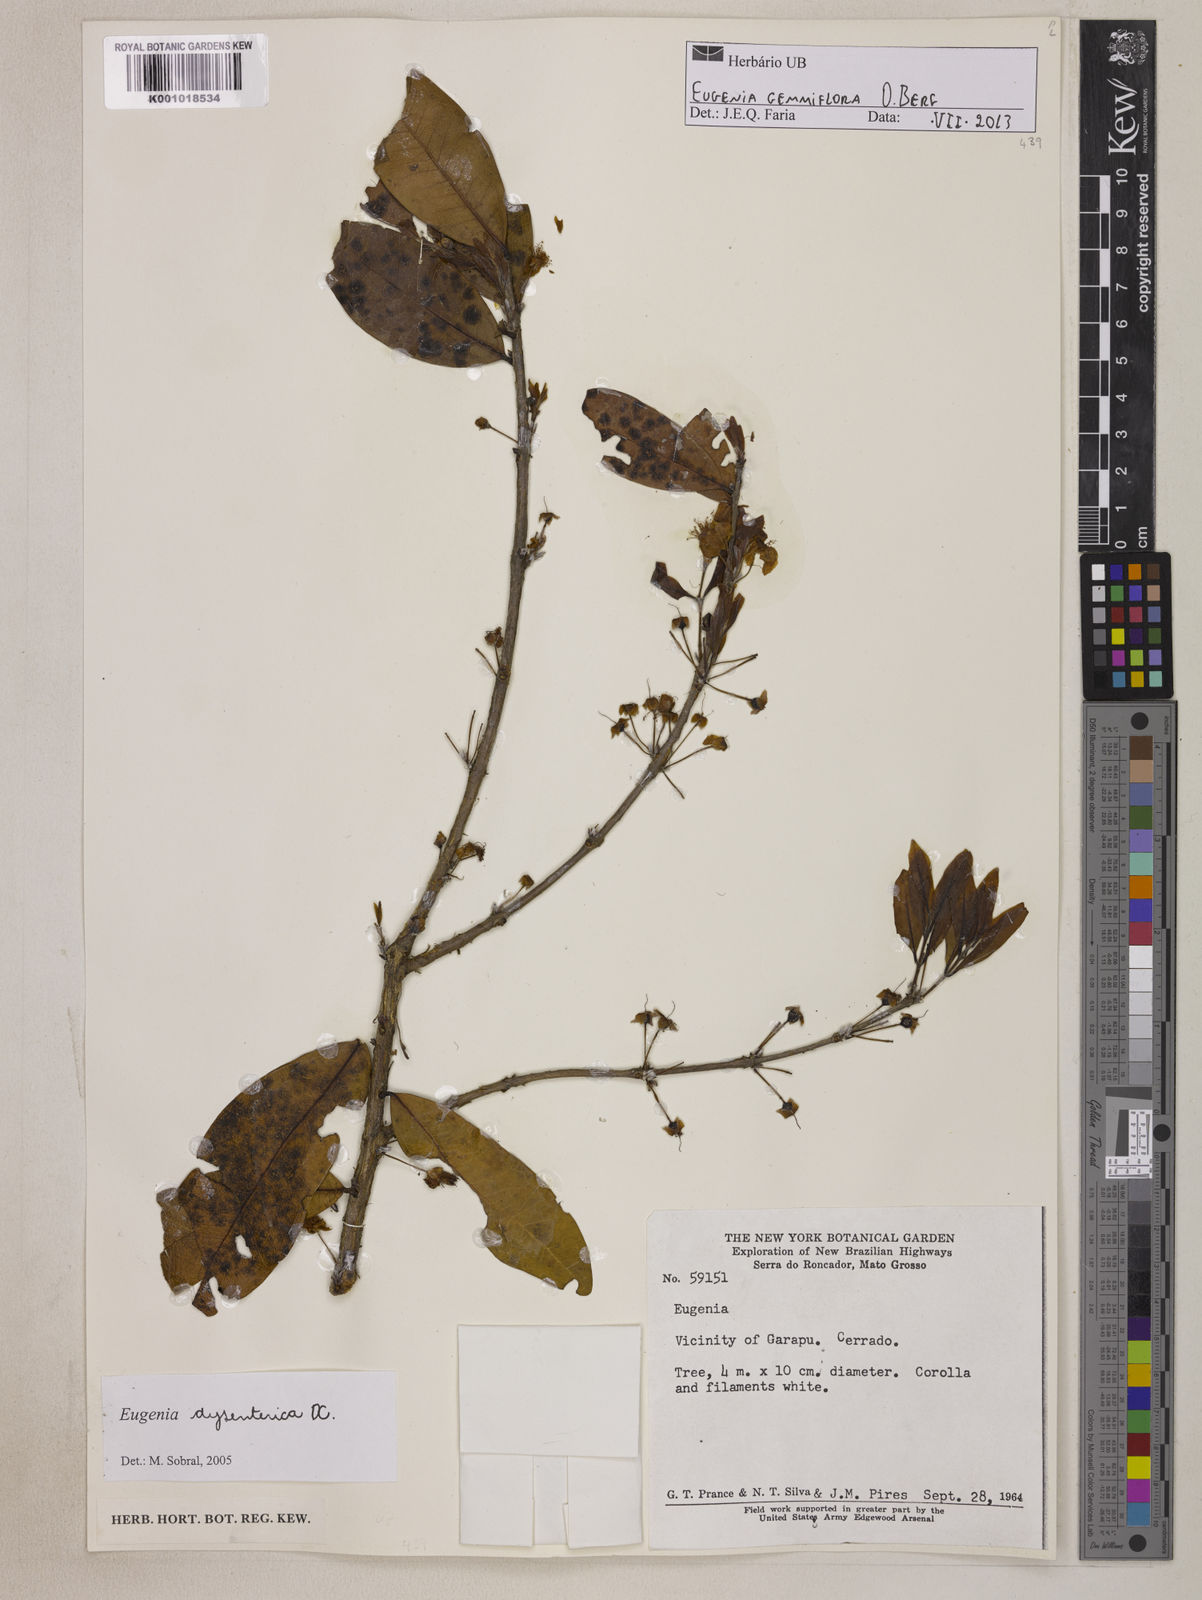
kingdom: Plantae
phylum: Tracheophyta
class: Magnoliopsida
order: Myrtales
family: Myrtaceae
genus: Eugenia
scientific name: Eugenia dysenterica
